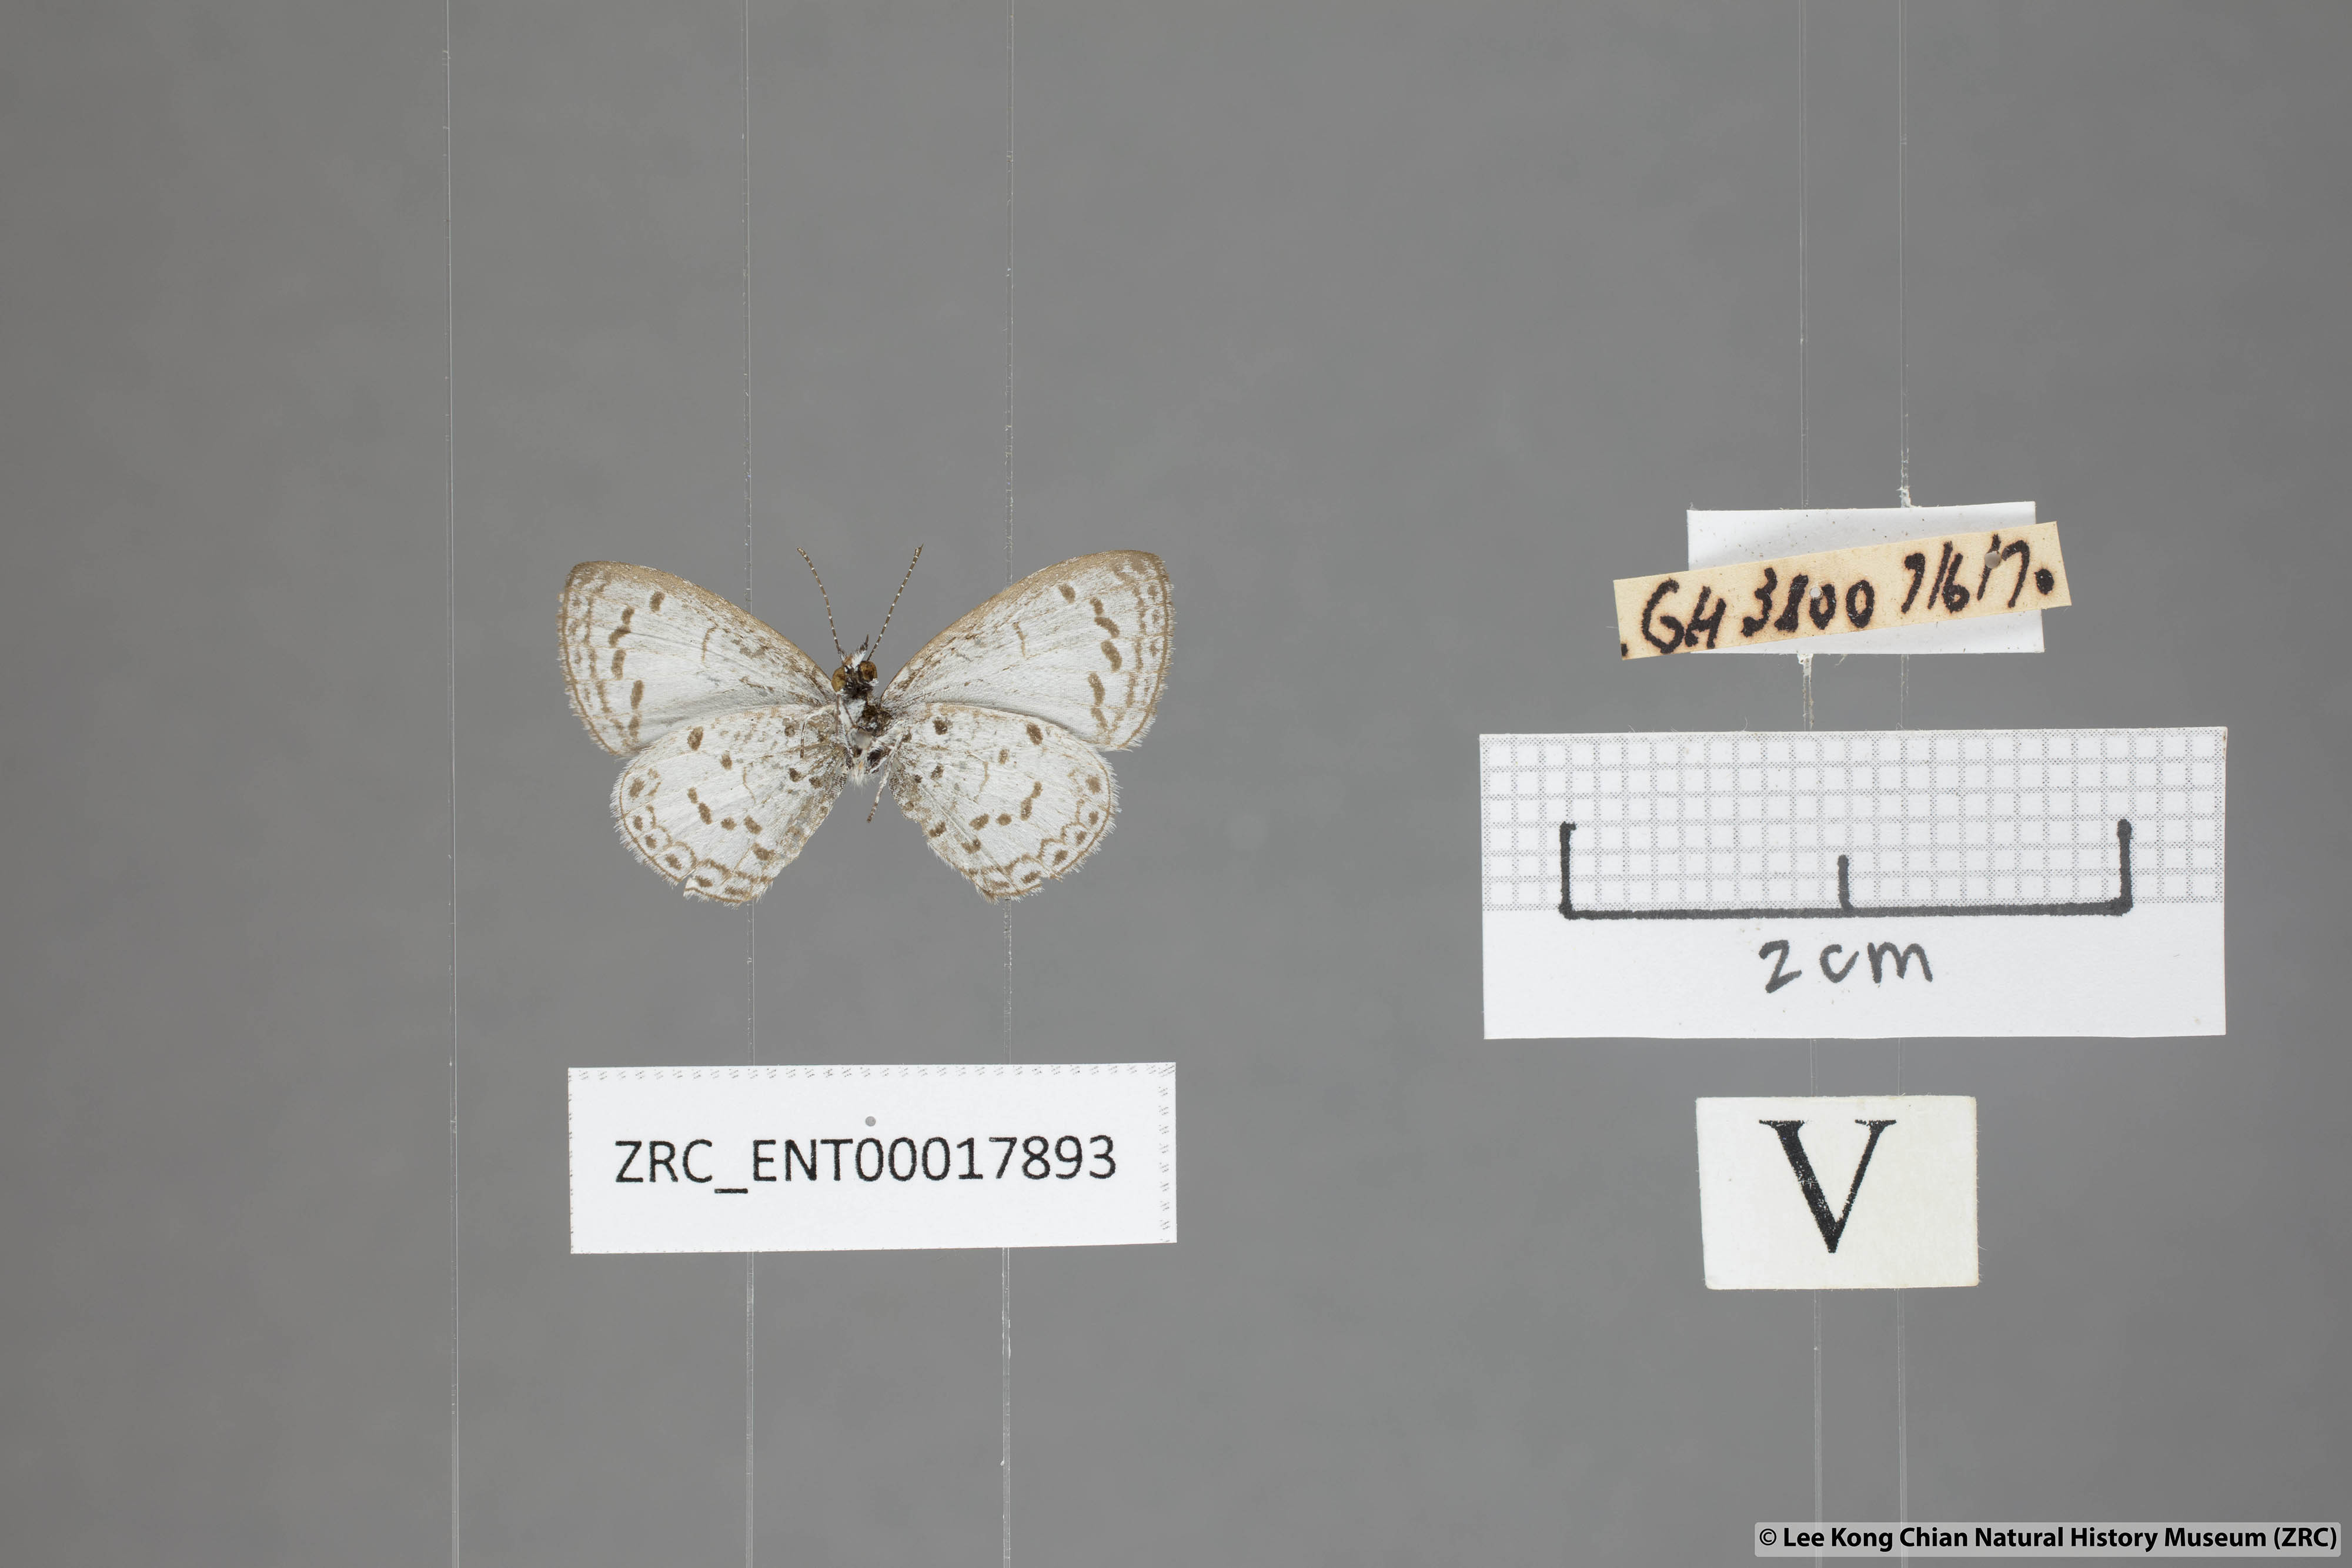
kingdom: Animalia
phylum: Arthropoda
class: Insecta
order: Lepidoptera
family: Lycaenidae
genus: Oreolyce
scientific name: Oreolyce
